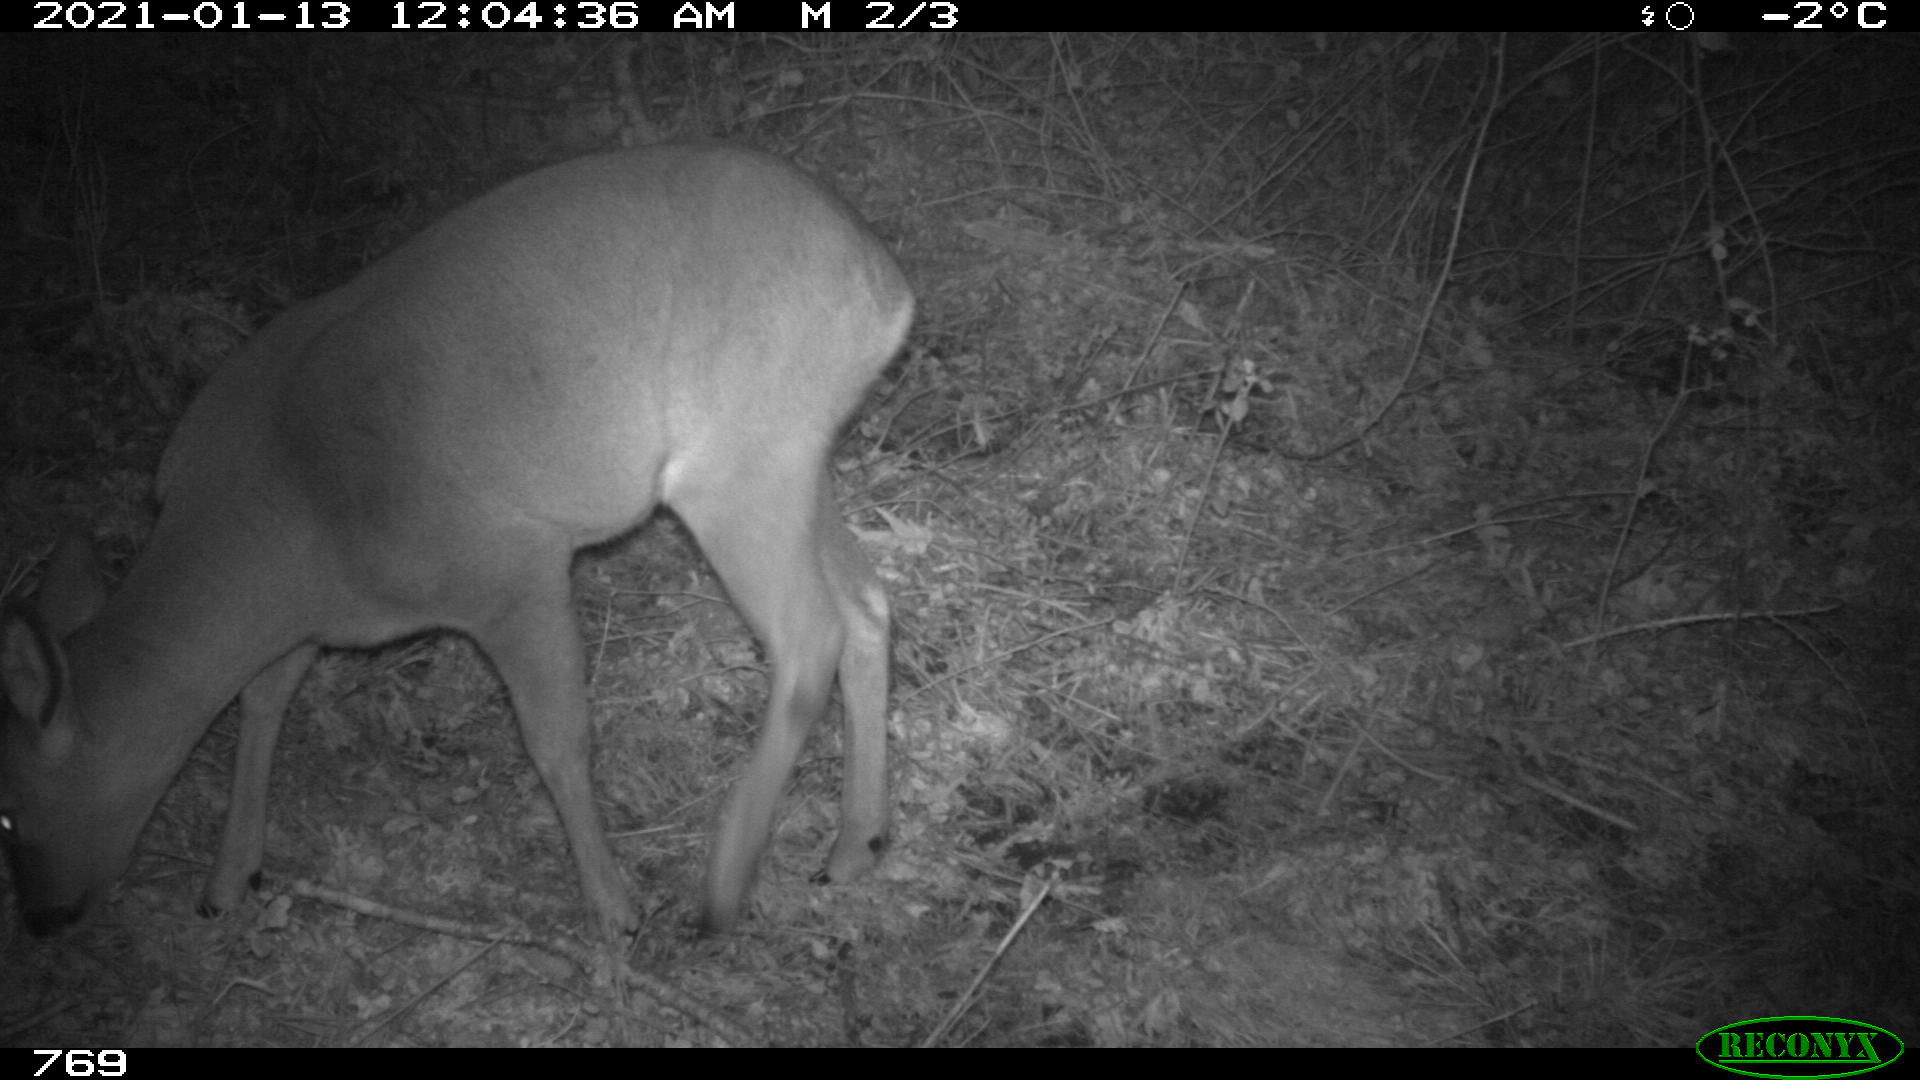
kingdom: Animalia
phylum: Chordata
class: Mammalia
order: Artiodactyla
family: Cervidae
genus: Capreolus
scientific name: Capreolus capreolus
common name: Western roe deer
